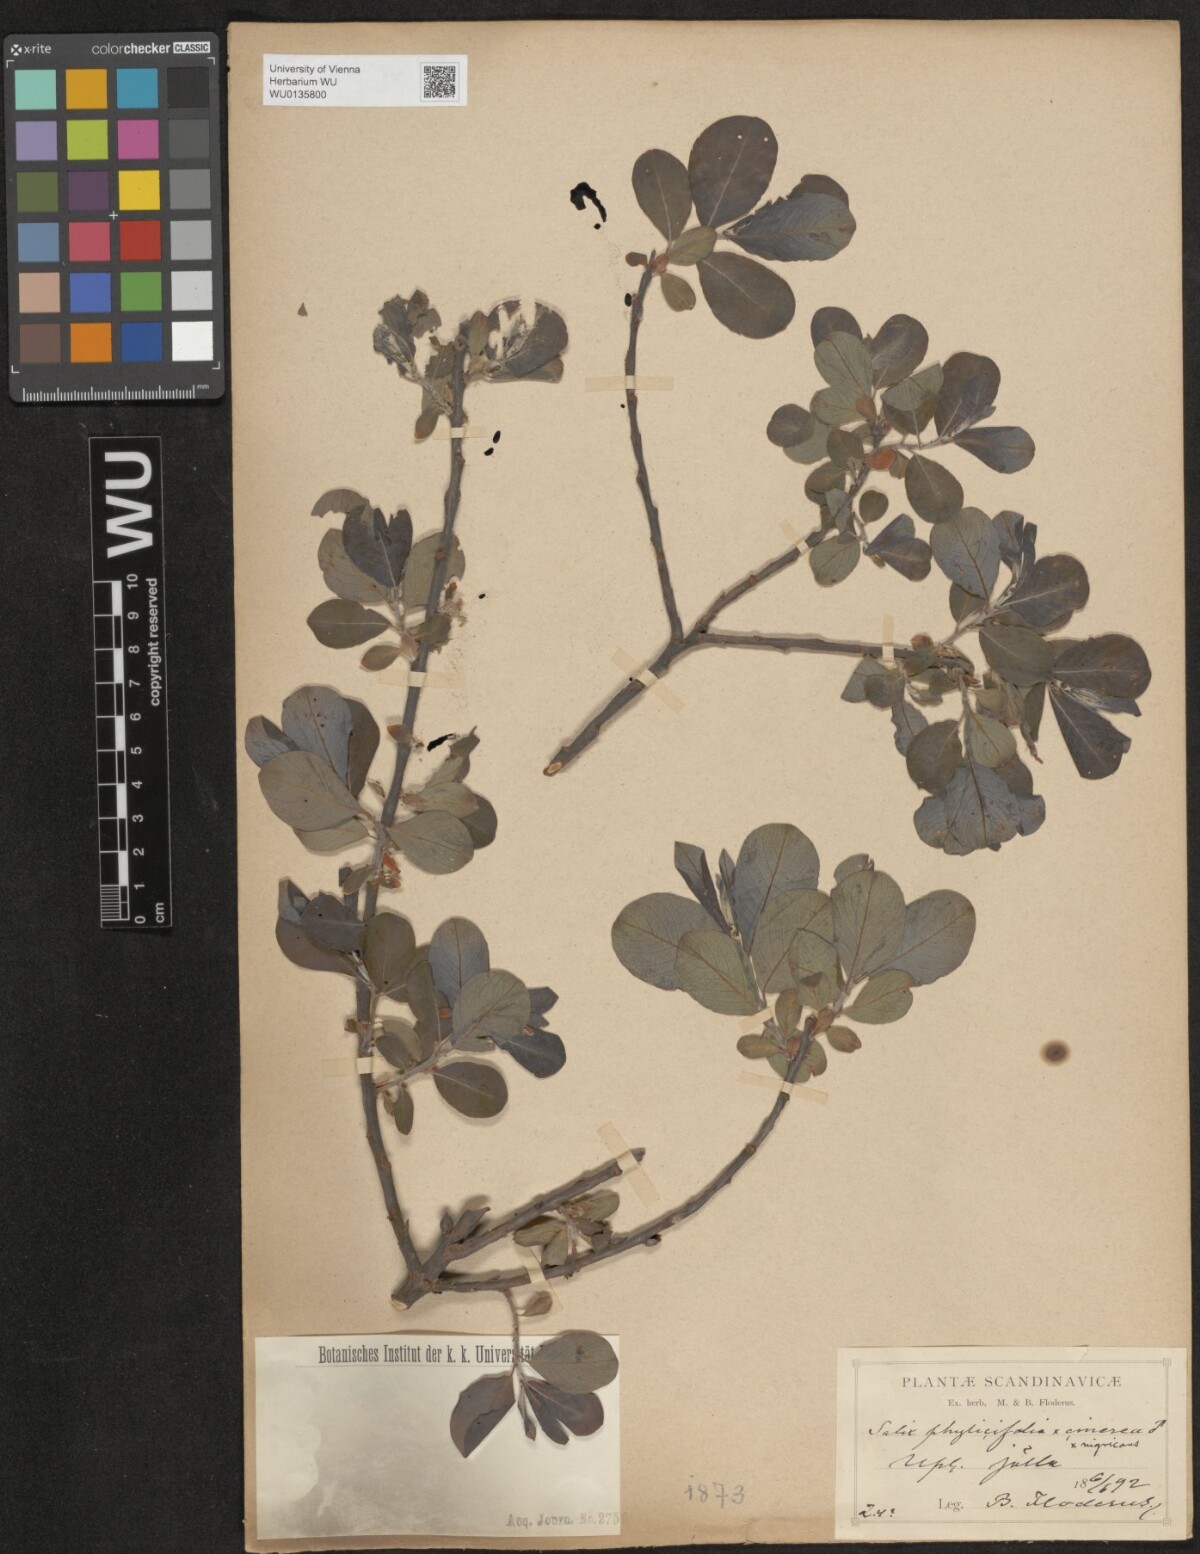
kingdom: Plantae
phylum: Tracheophyta
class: Magnoliopsida
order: Malpighiales
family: Salicaceae
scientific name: Salicaceae
